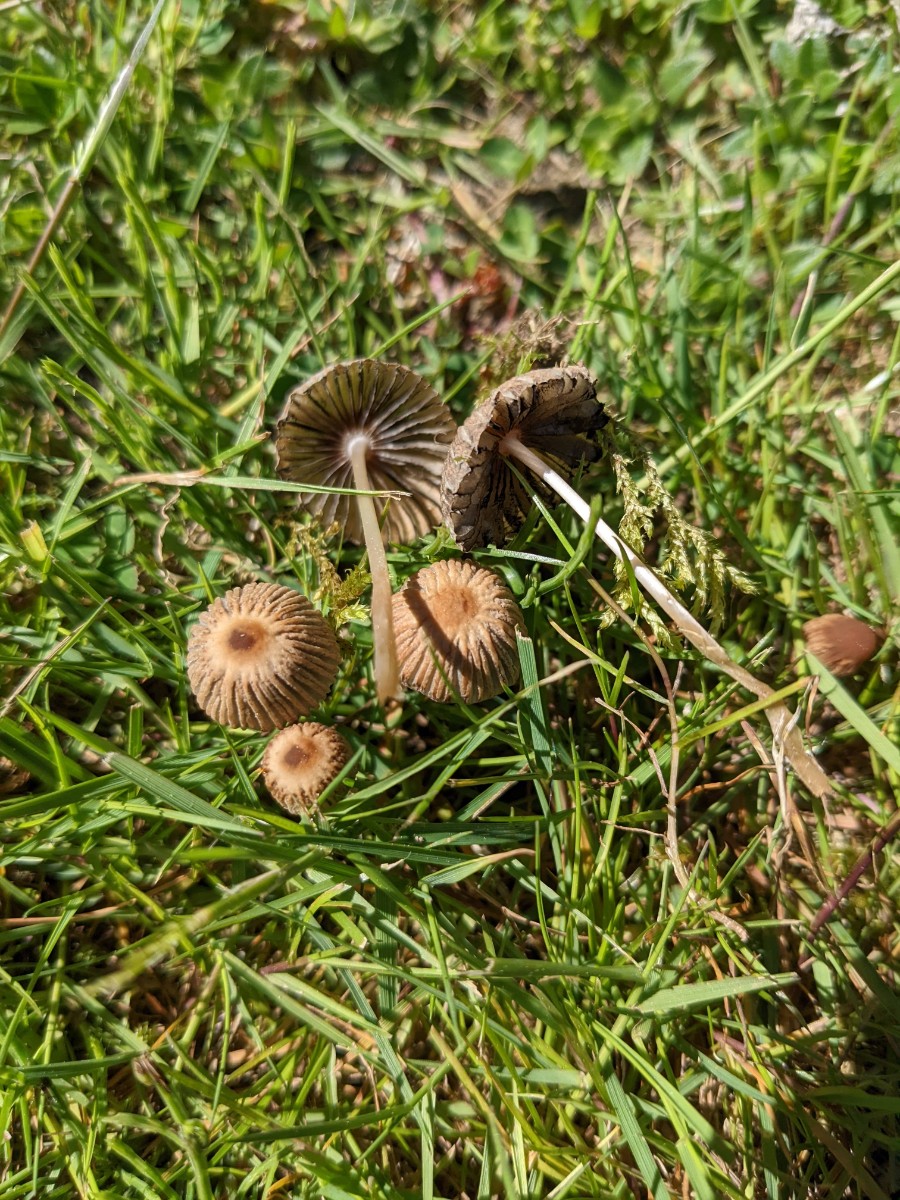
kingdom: Fungi
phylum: Basidiomycota
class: Agaricomycetes
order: Agaricales
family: Psathyrellaceae
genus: Parasola
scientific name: Parasola schroeteri
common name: bredsporet hjulhat
